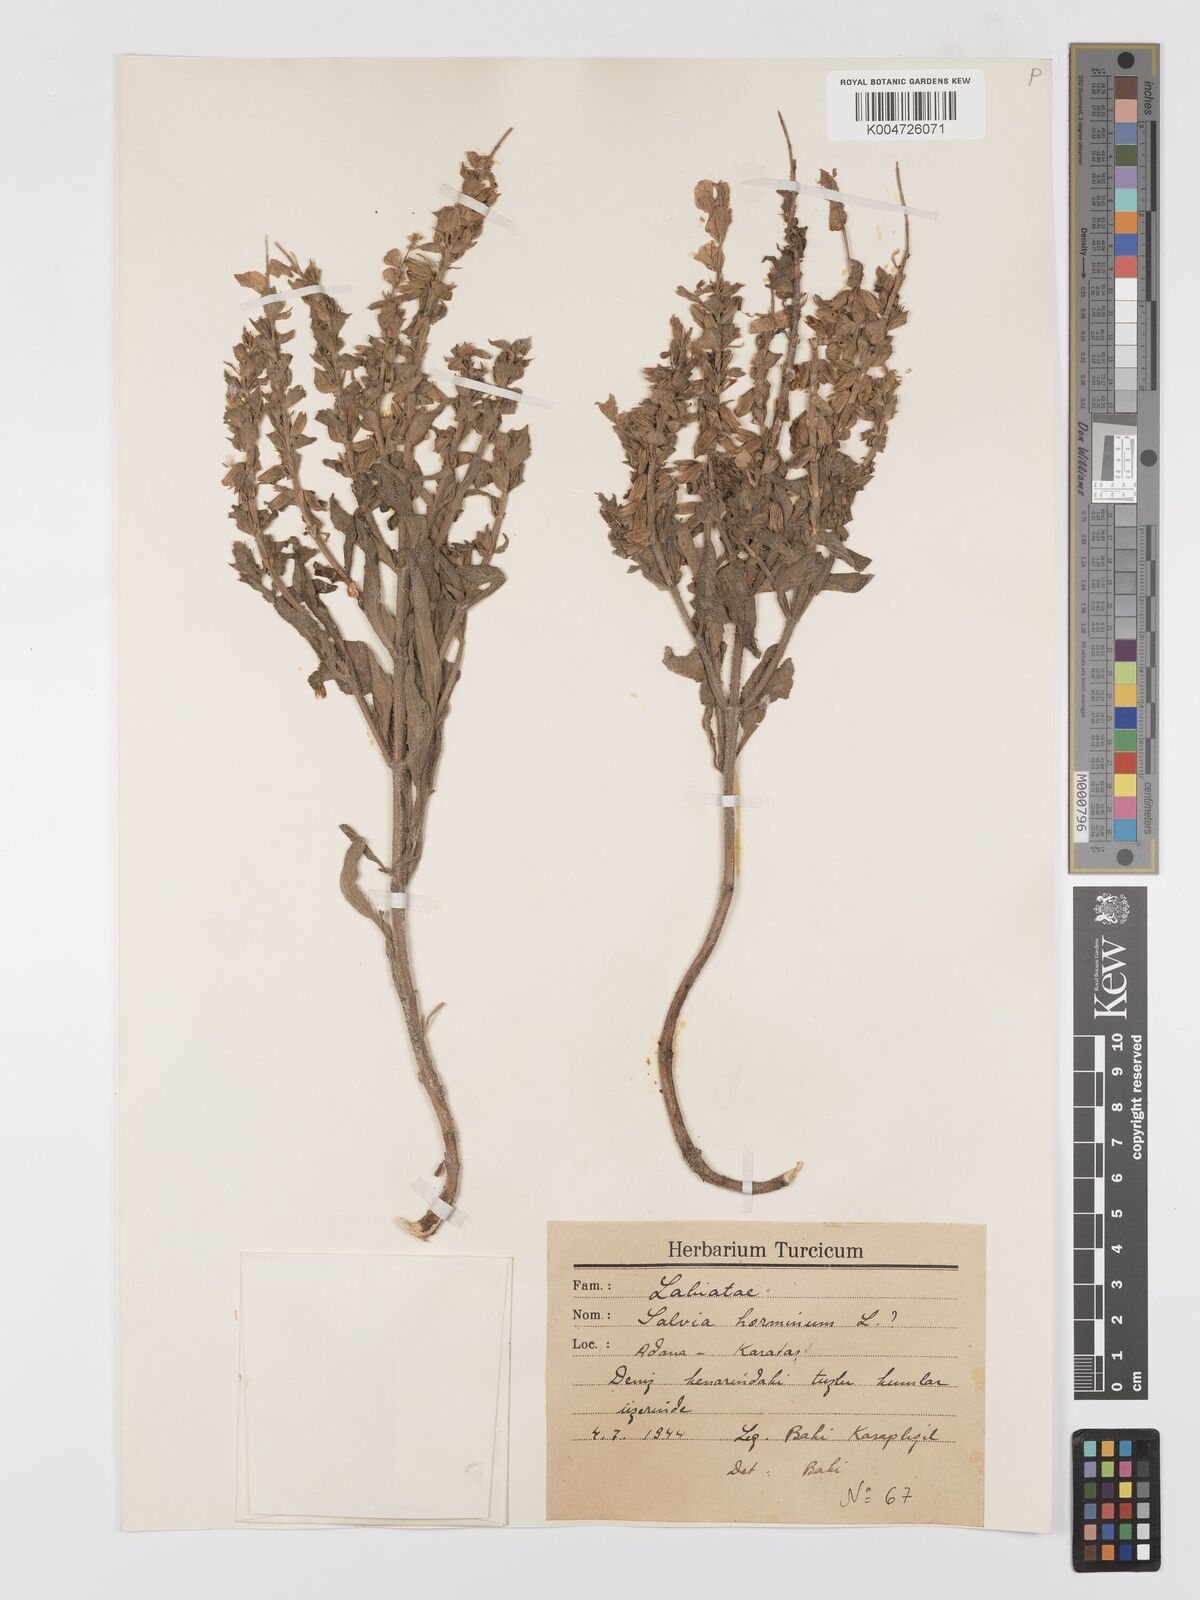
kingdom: Plantae
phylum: Tracheophyta
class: Magnoliopsida
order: Lamiales
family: Lamiaceae
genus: Salvia
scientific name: Salvia viridis
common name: Annual clary
